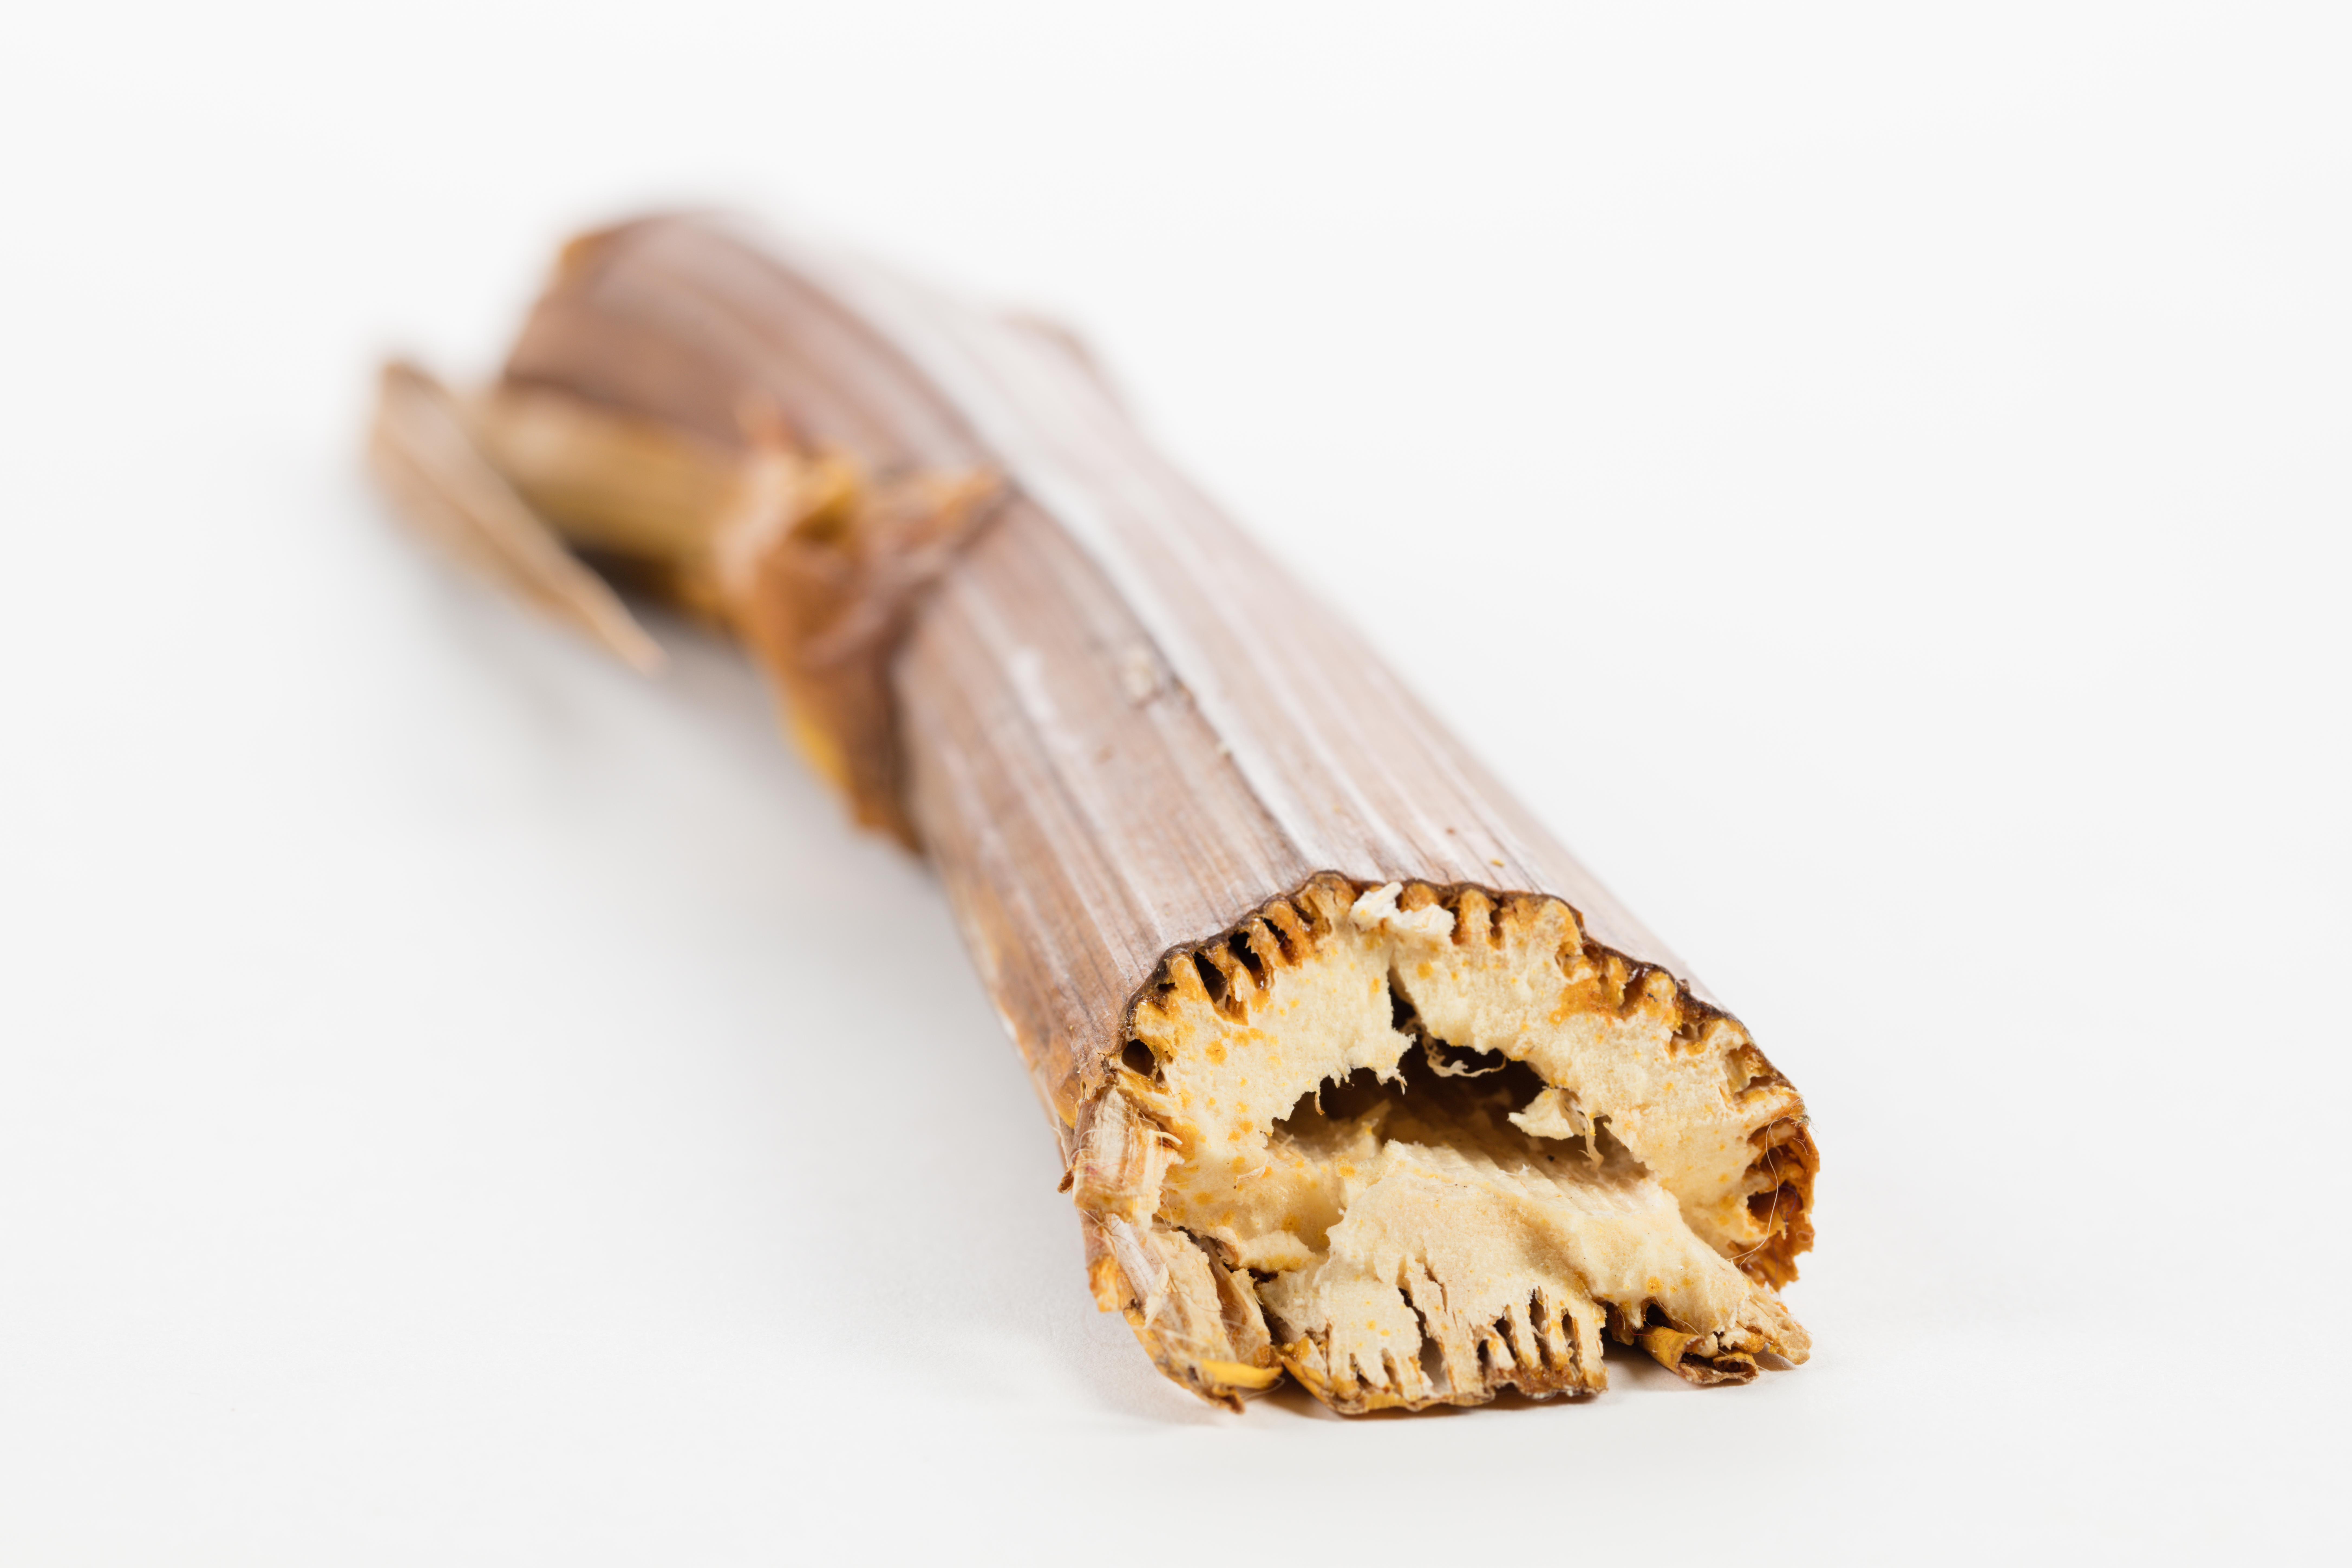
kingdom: Plantae
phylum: Tracheophyta
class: Magnoliopsida
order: Apiales
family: Apiaceae
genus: Aciphylla
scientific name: Aciphylla
